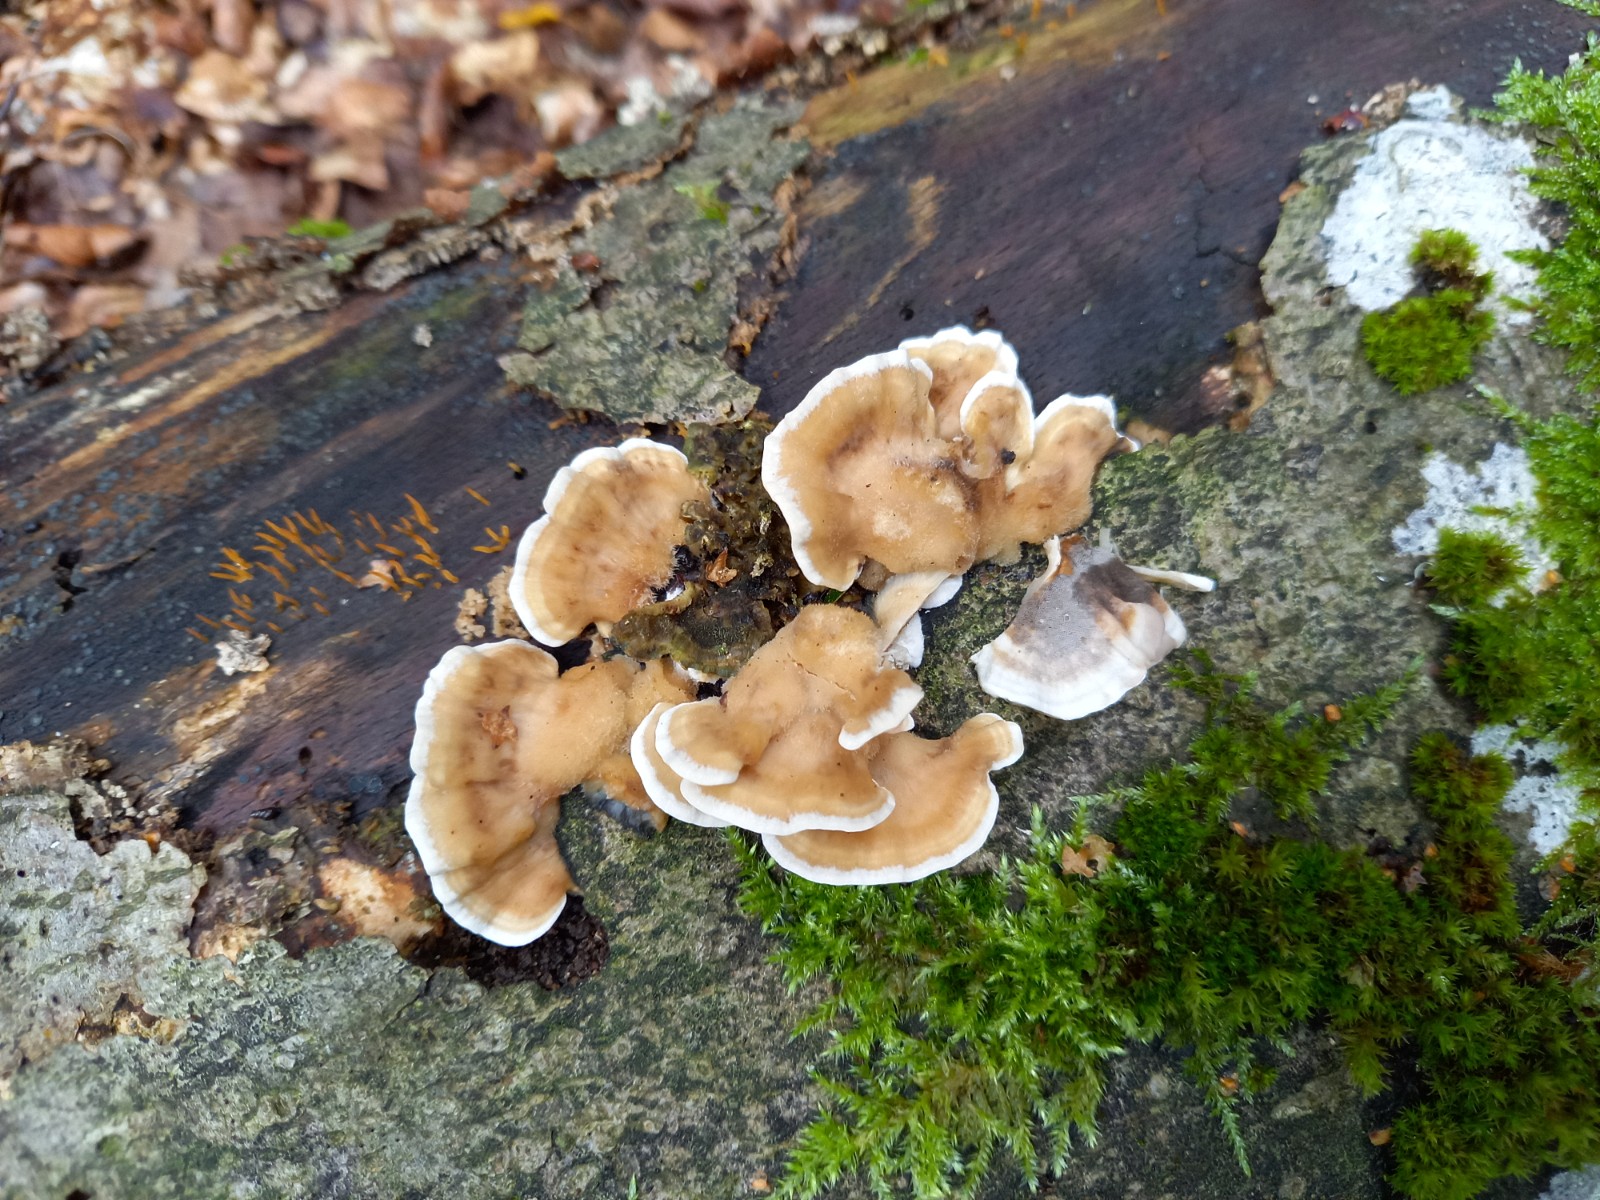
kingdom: Fungi
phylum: Basidiomycota
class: Agaricomycetes
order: Polyporales
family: Phanerochaetaceae
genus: Bjerkandera
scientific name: Bjerkandera adusta
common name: sveden sodporesvamp
